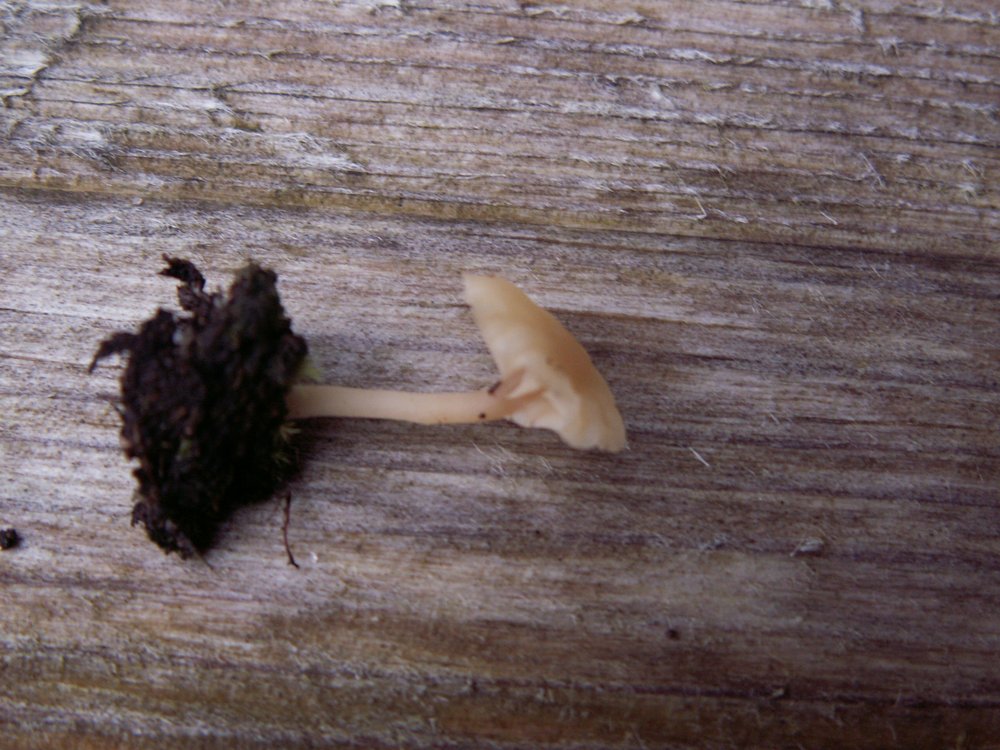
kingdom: Fungi
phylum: Basidiomycota
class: Agaricomycetes
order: Agaricales
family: Hygrophoraceae
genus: Lichenomphalia
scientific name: Lichenomphalia umbellifera
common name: tørve-lavhat
